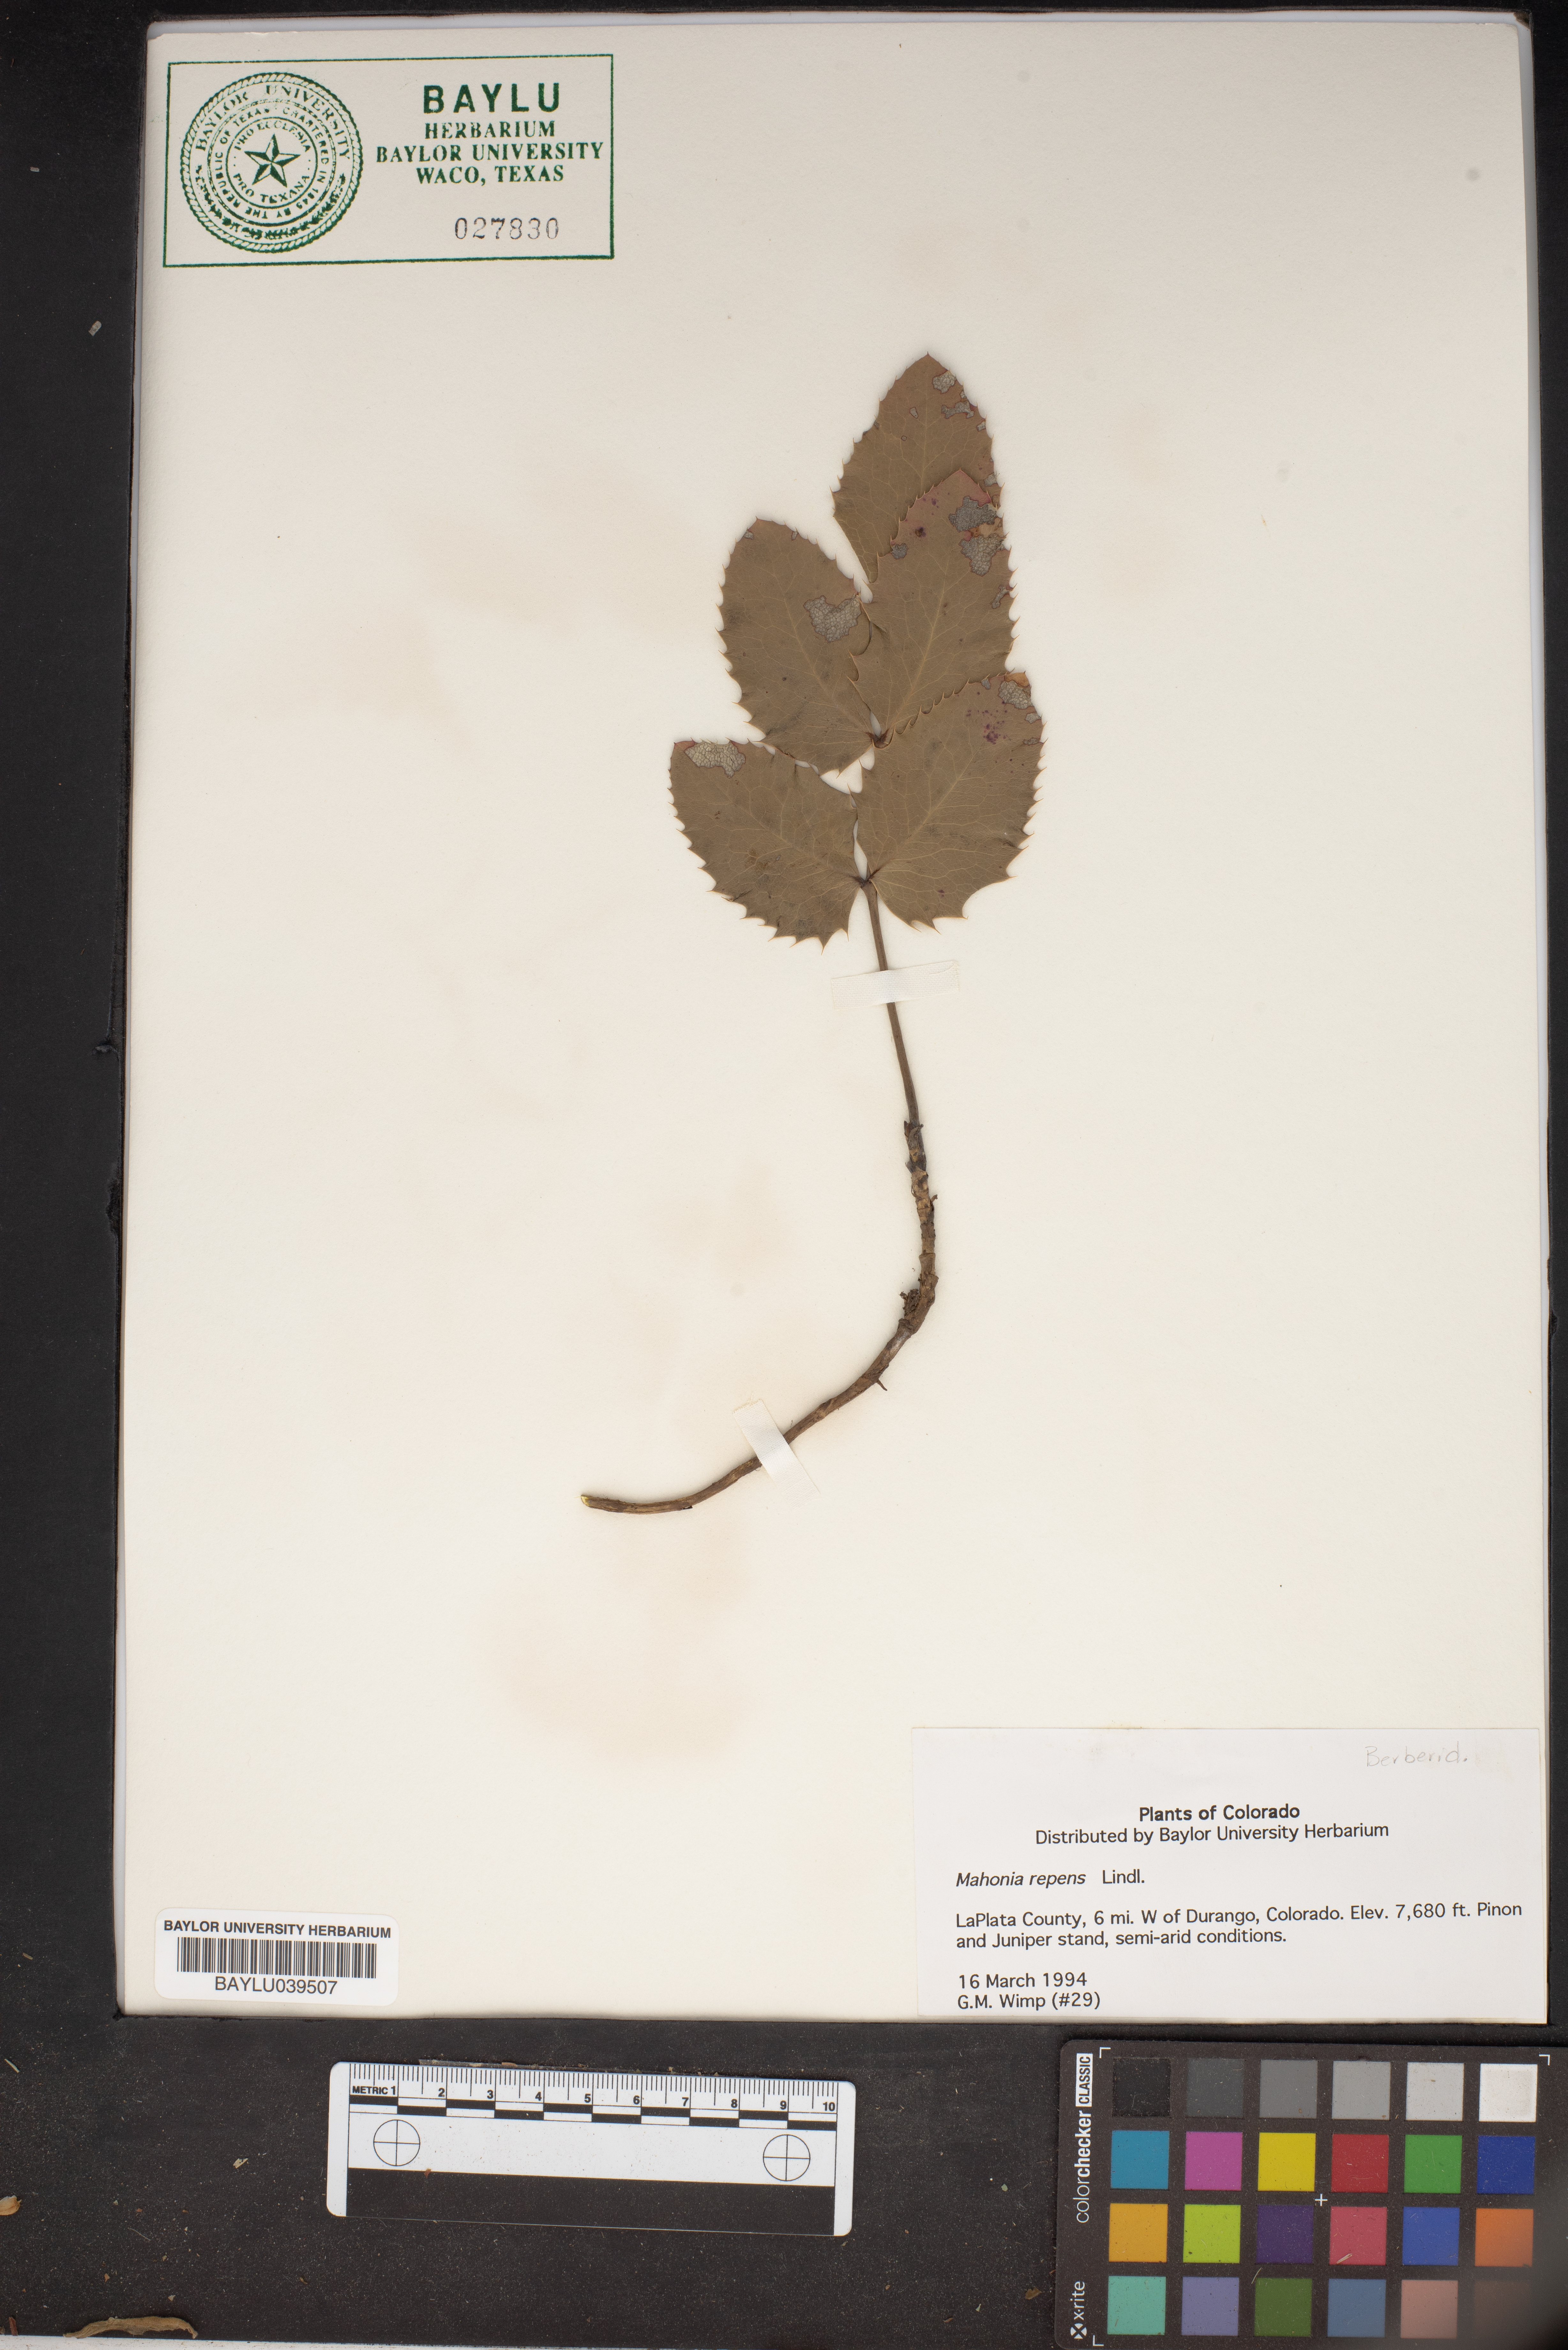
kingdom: Plantae
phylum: Tracheophyta
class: Magnoliopsida
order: Ranunculales
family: Berberidaceae
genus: Mahonia
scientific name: Mahonia repens
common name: Creeping oregon-grape
